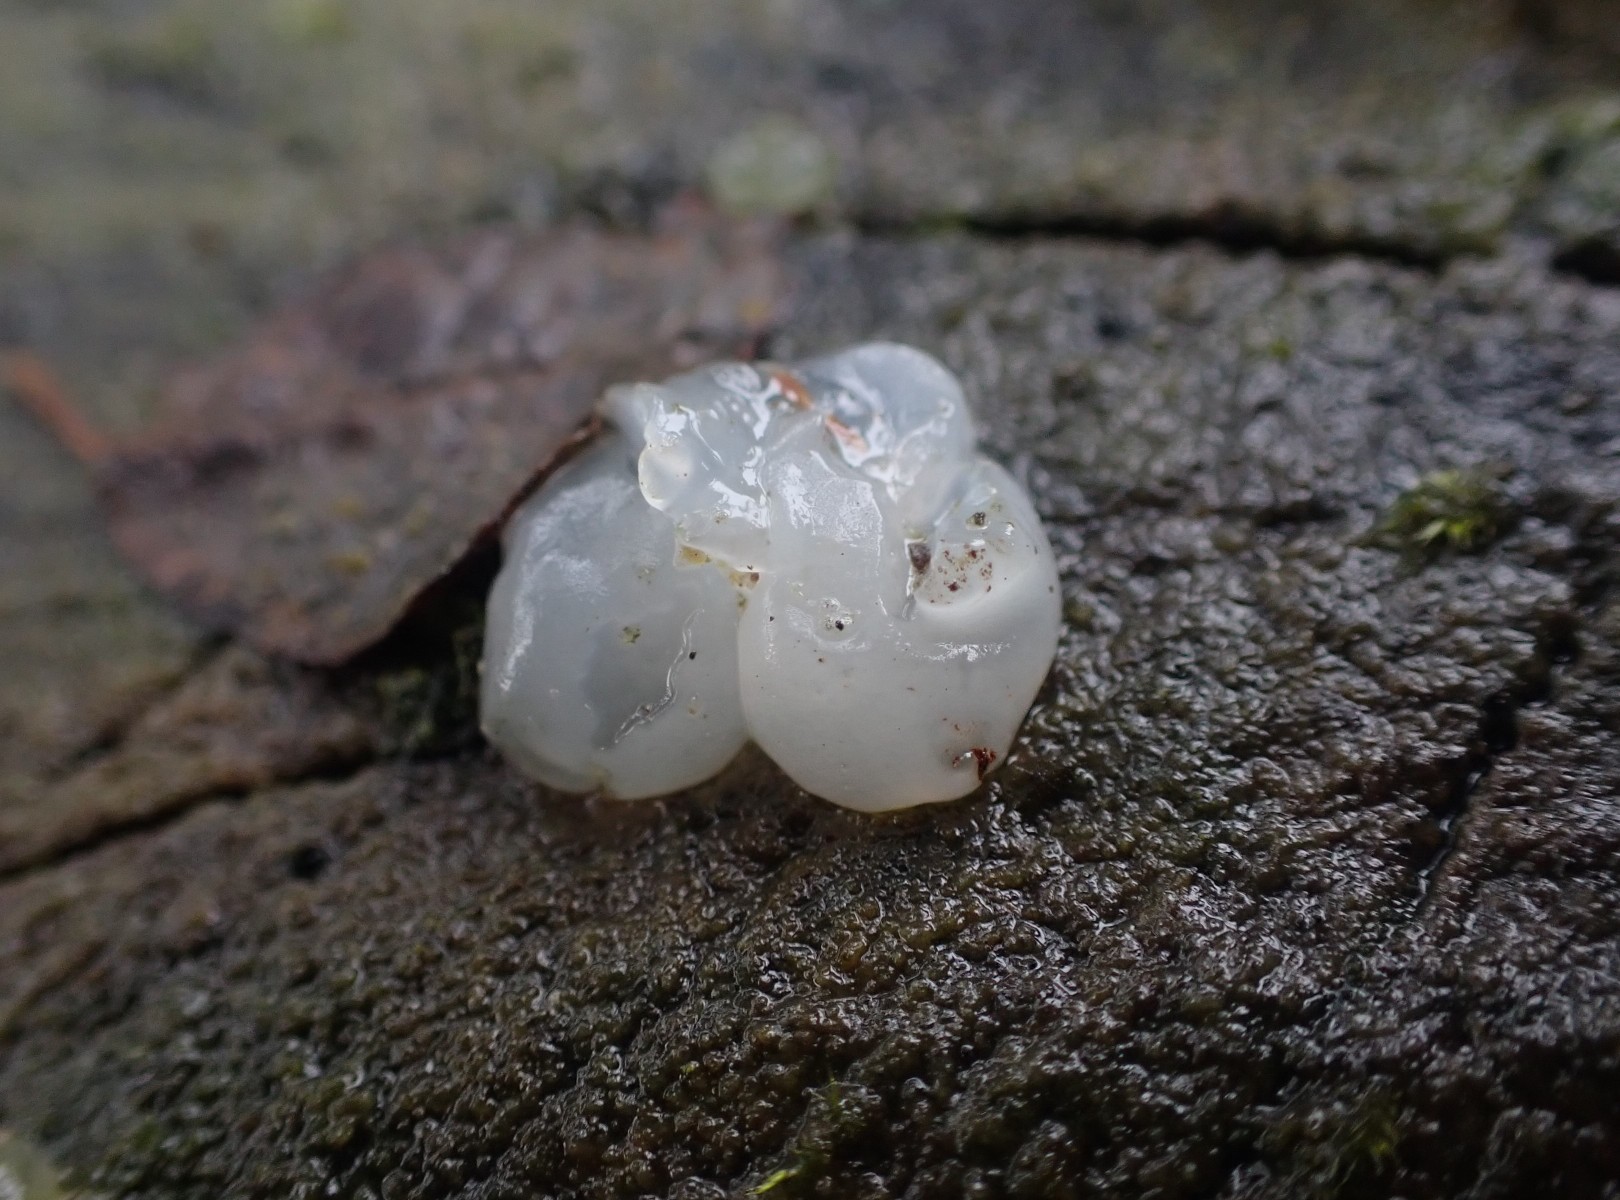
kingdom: Fungi
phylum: Basidiomycota
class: Agaricomycetes
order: Auriculariales
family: Hyaloriaceae
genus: Myxarium
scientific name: Myxarium nucleatum
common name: klar bævretop
